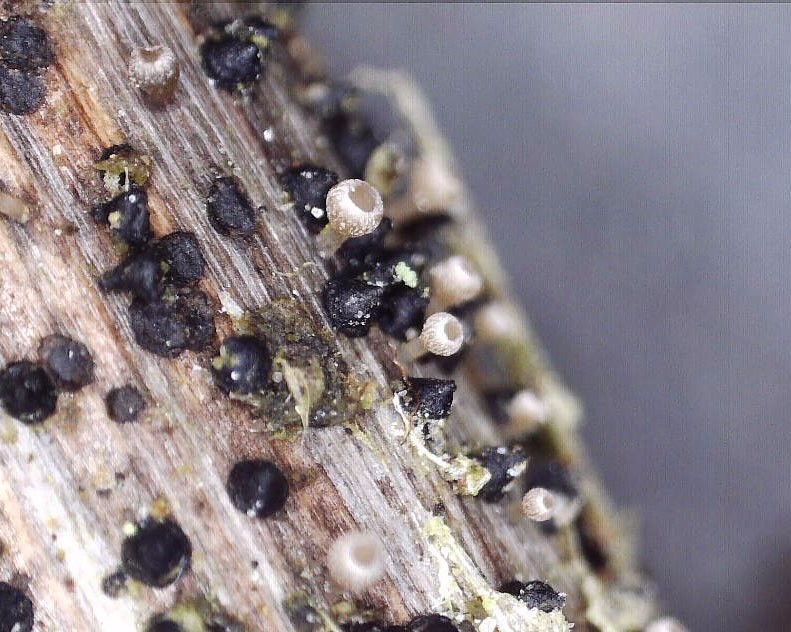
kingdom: Fungi
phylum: Ascomycota
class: Leotiomycetes
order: Helotiales
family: Helotiaceae
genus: Cyathicula
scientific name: Cyathicula cyathoidea
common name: pokal-stilkskive
